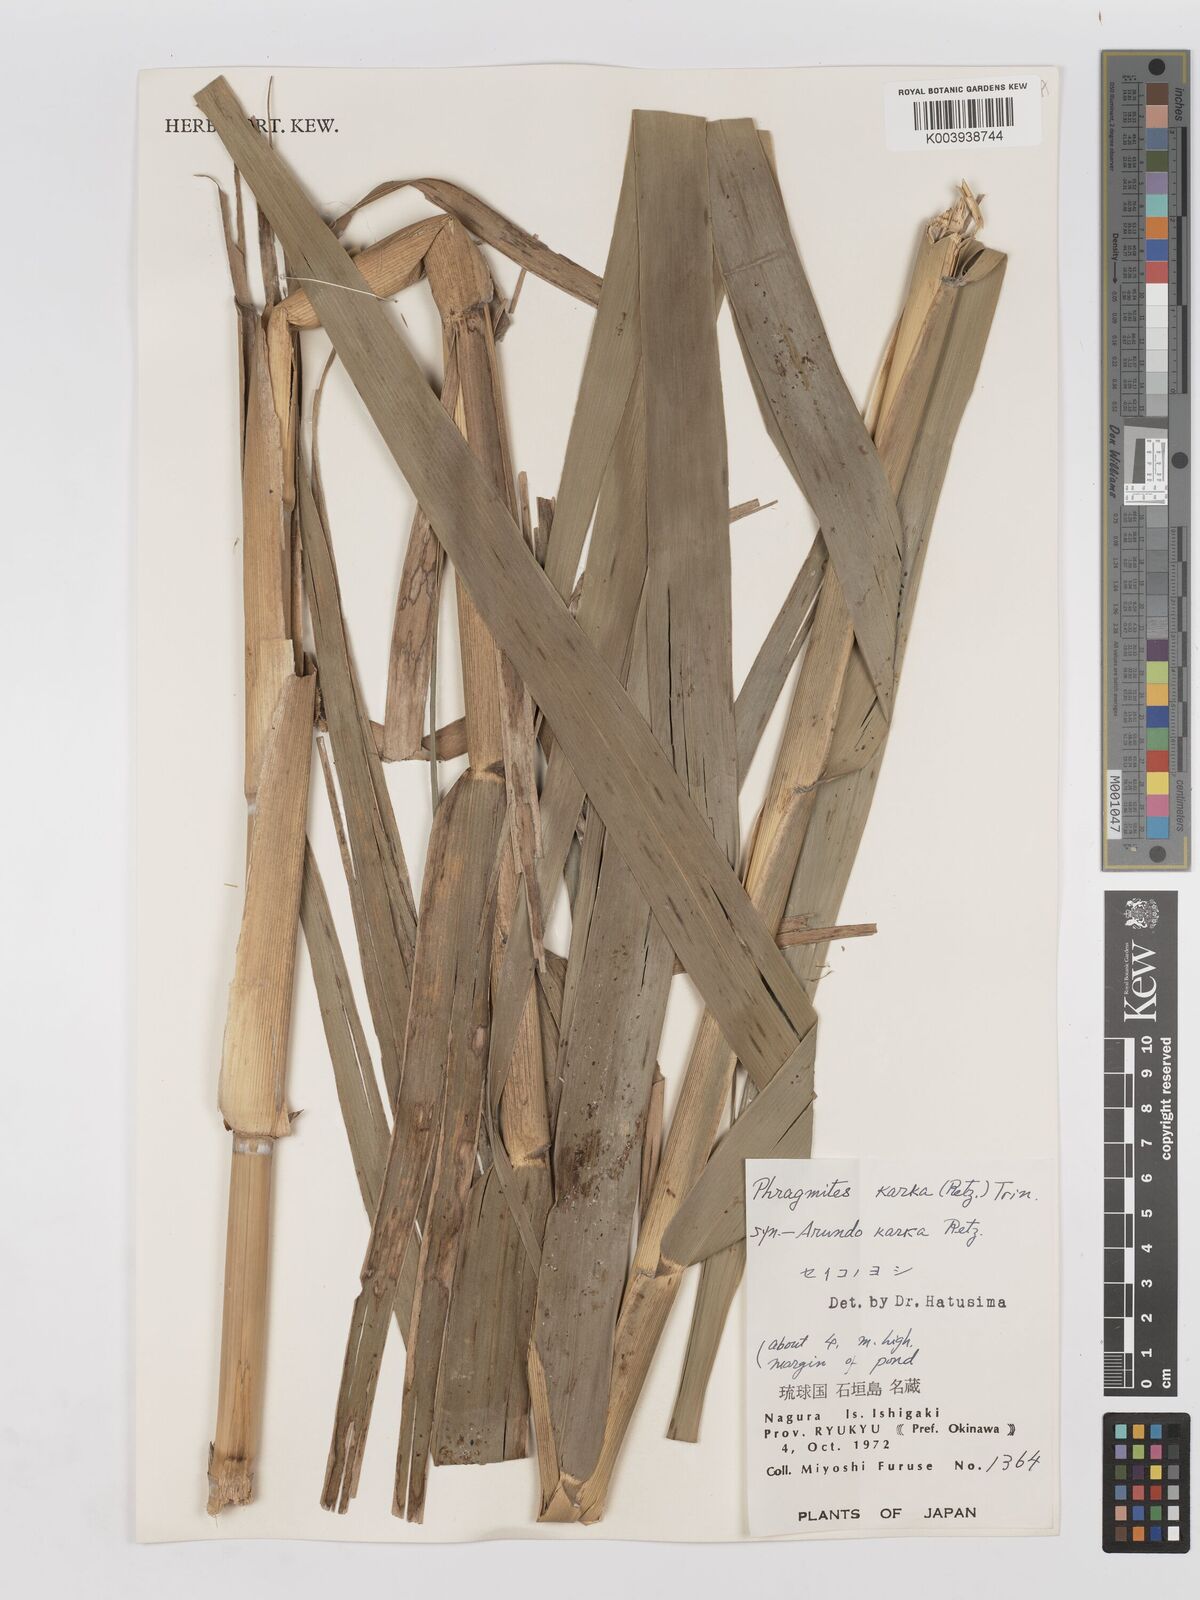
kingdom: Plantae
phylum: Tracheophyta
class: Liliopsida
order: Poales
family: Poaceae
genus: Phragmites
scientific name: Phragmites karka
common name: Tropical reed
